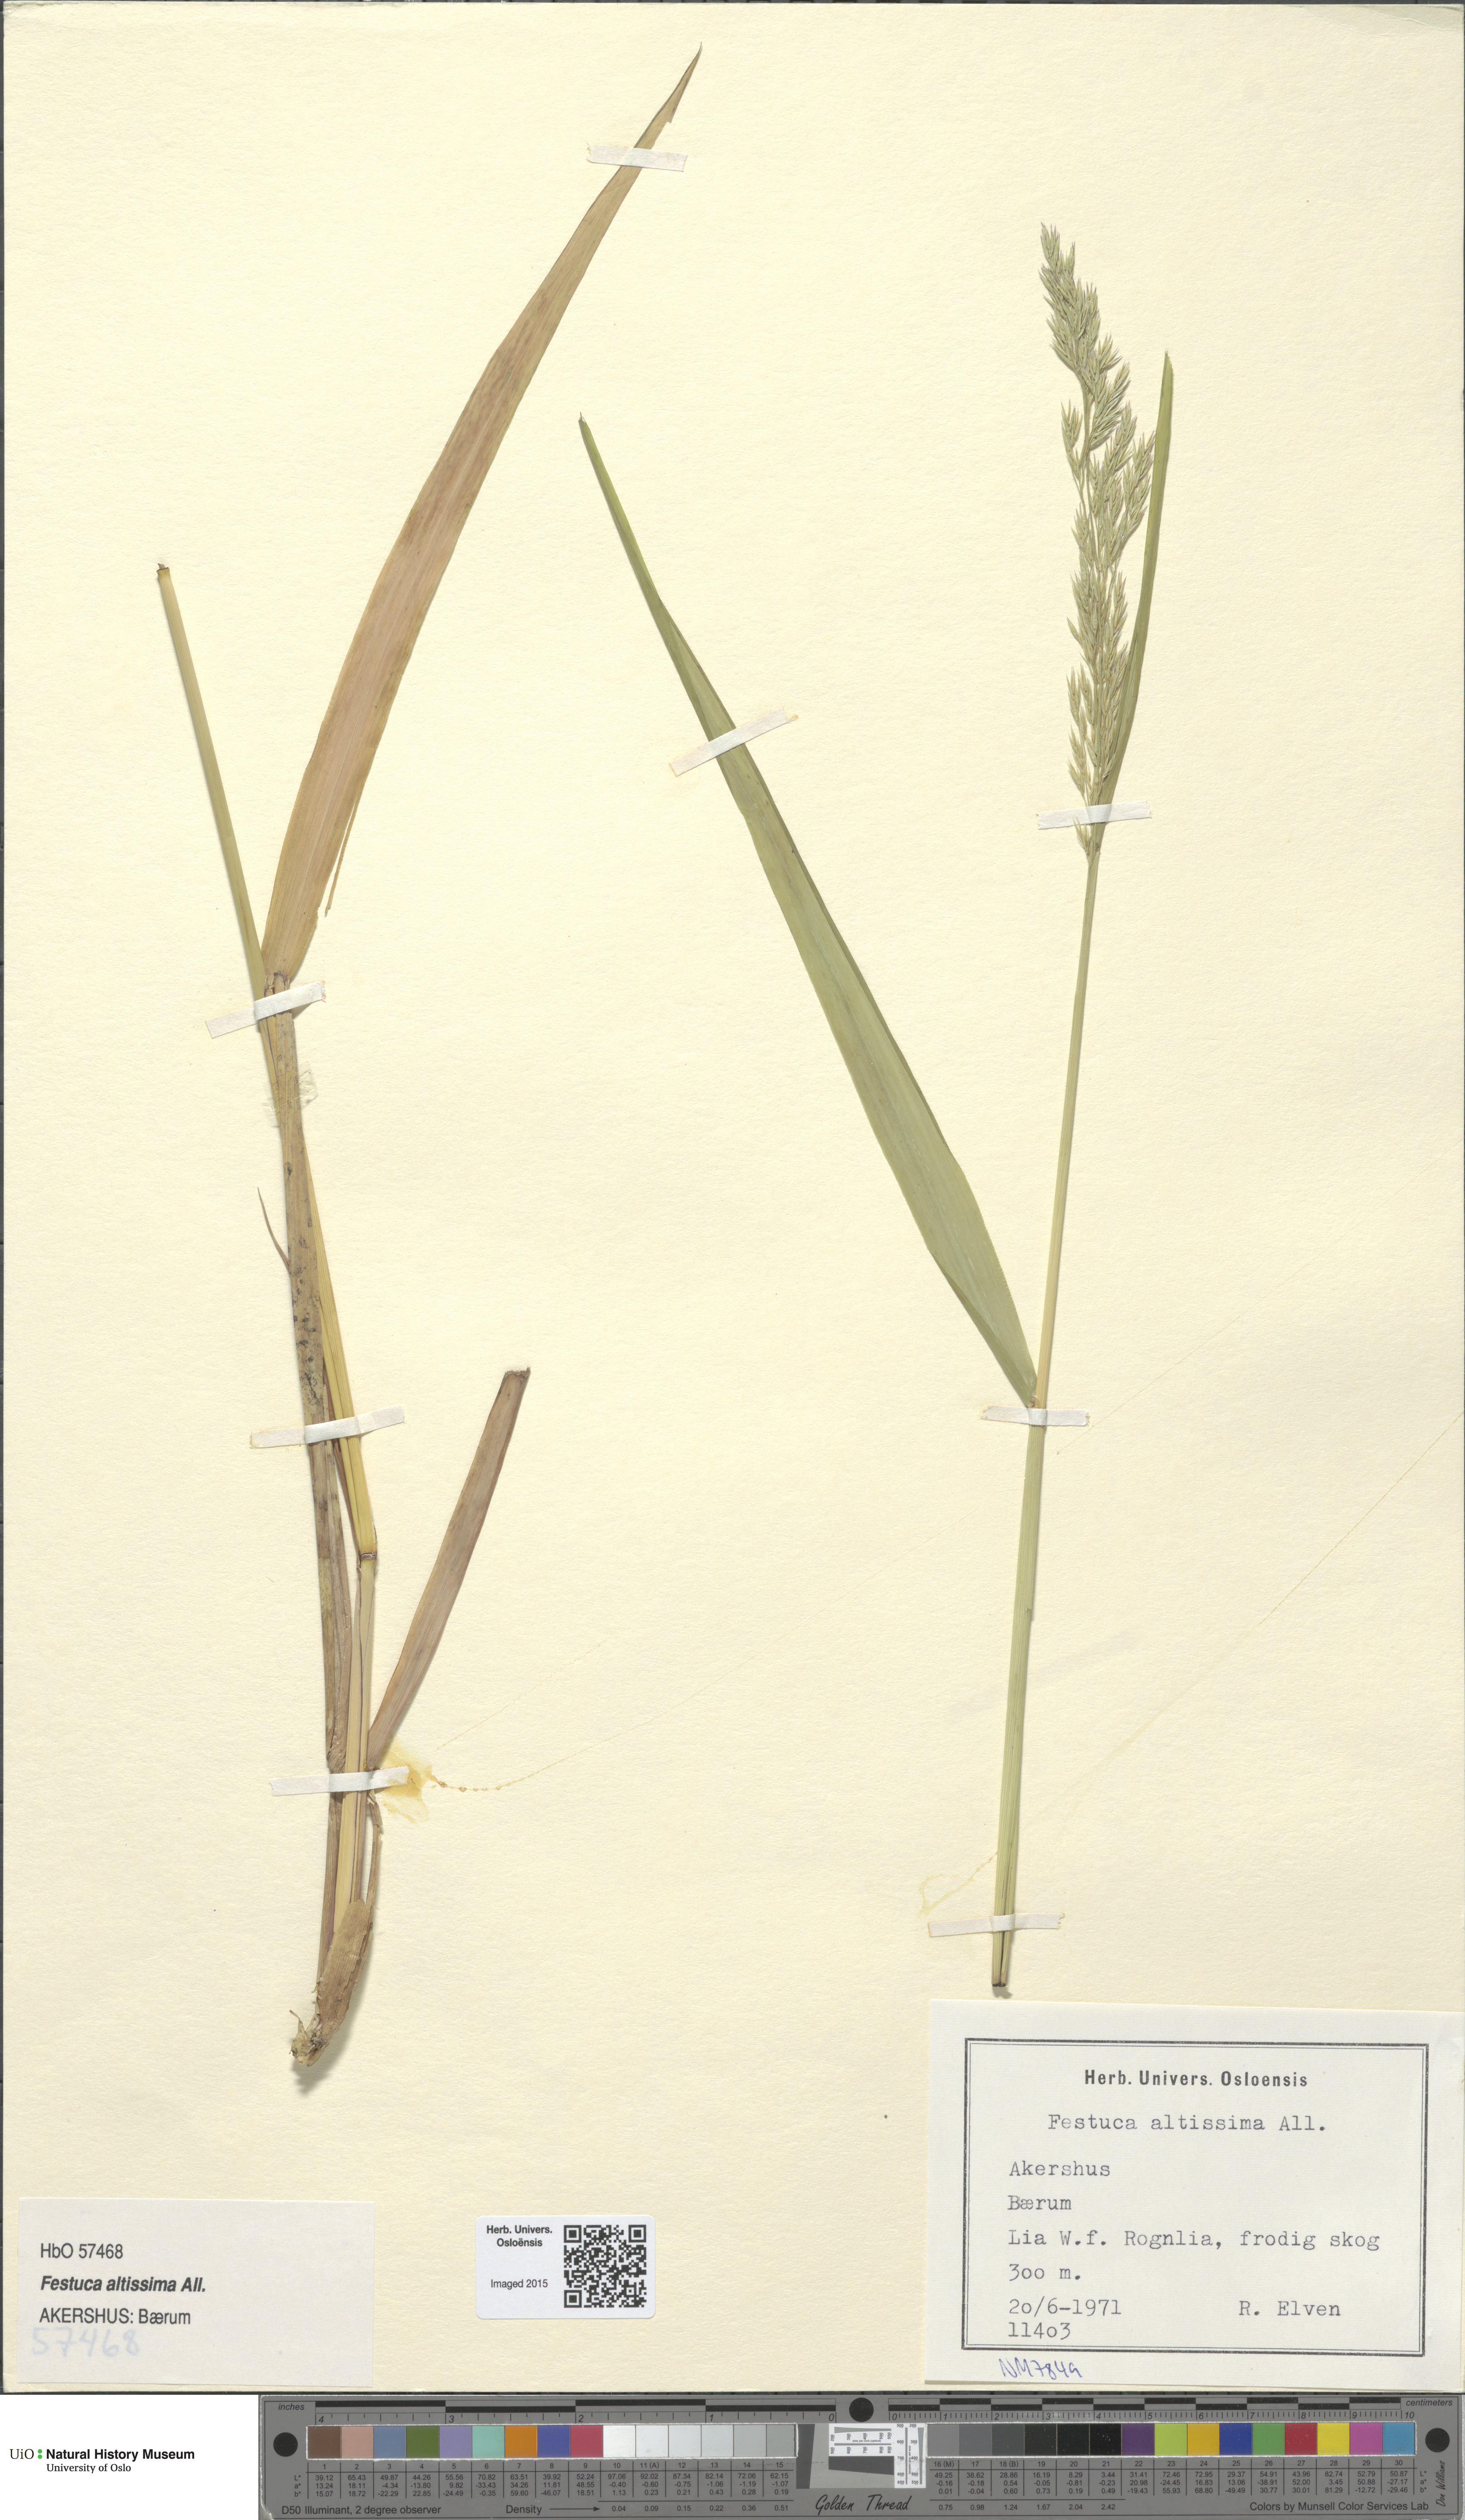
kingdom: Plantae
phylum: Tracheophyta
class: Liliopsida
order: Poales
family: Poaceae
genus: Festuca
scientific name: Festuca altissima
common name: Wood fescue
